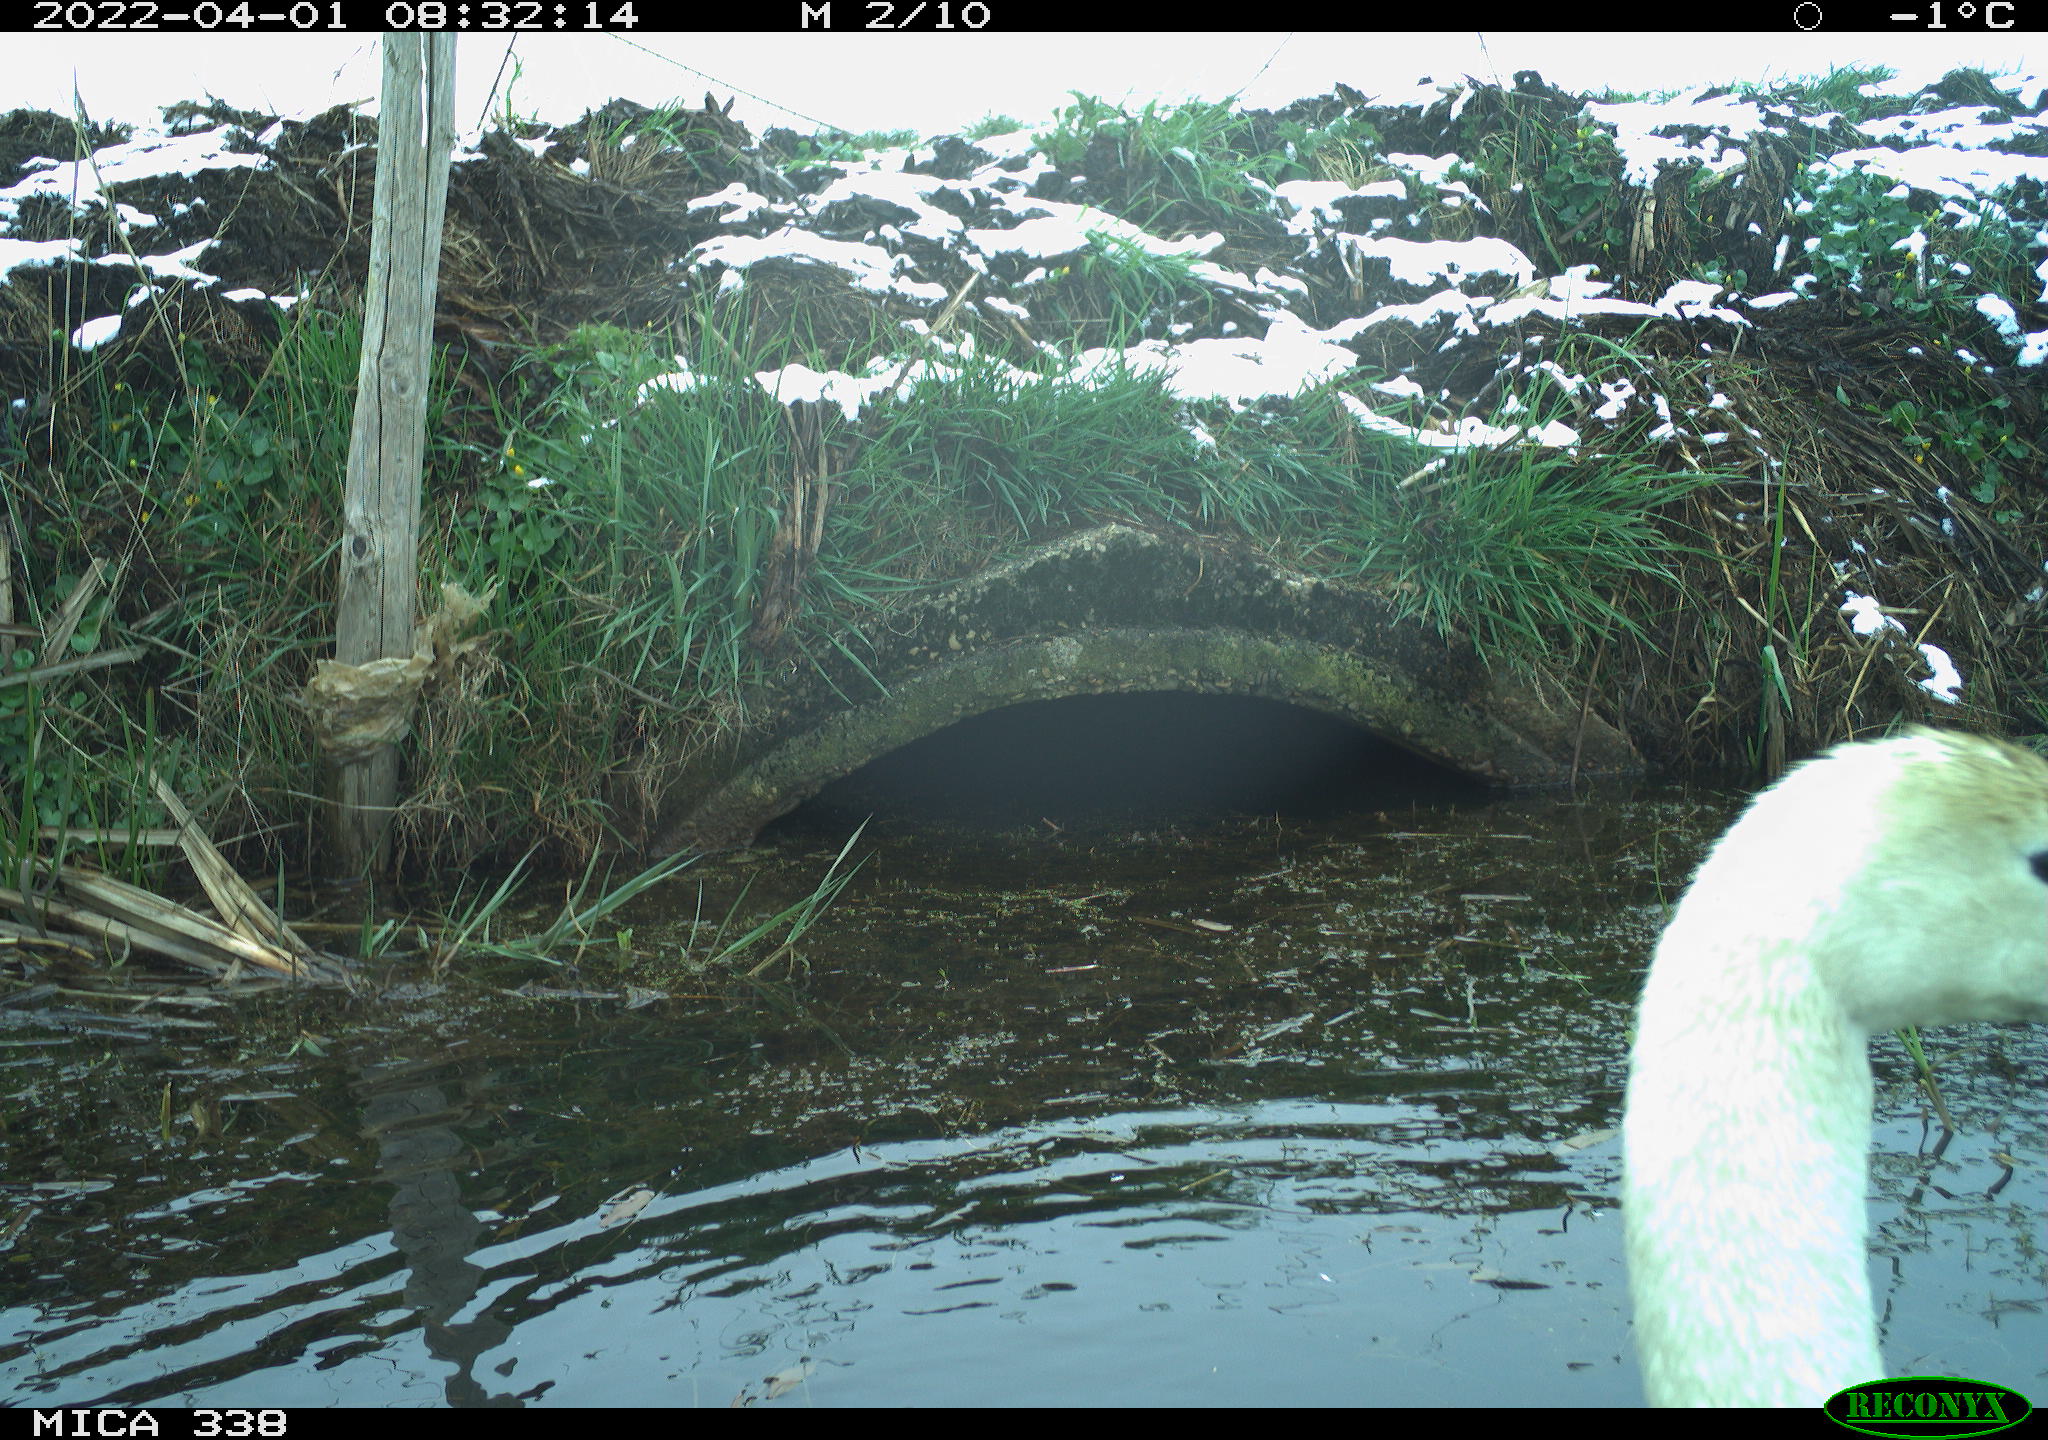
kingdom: Animalia
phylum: Chordata
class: Aves
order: Anseriformes
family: Anatidae
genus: Cygnus
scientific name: Cygnus olor
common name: Mute swan
